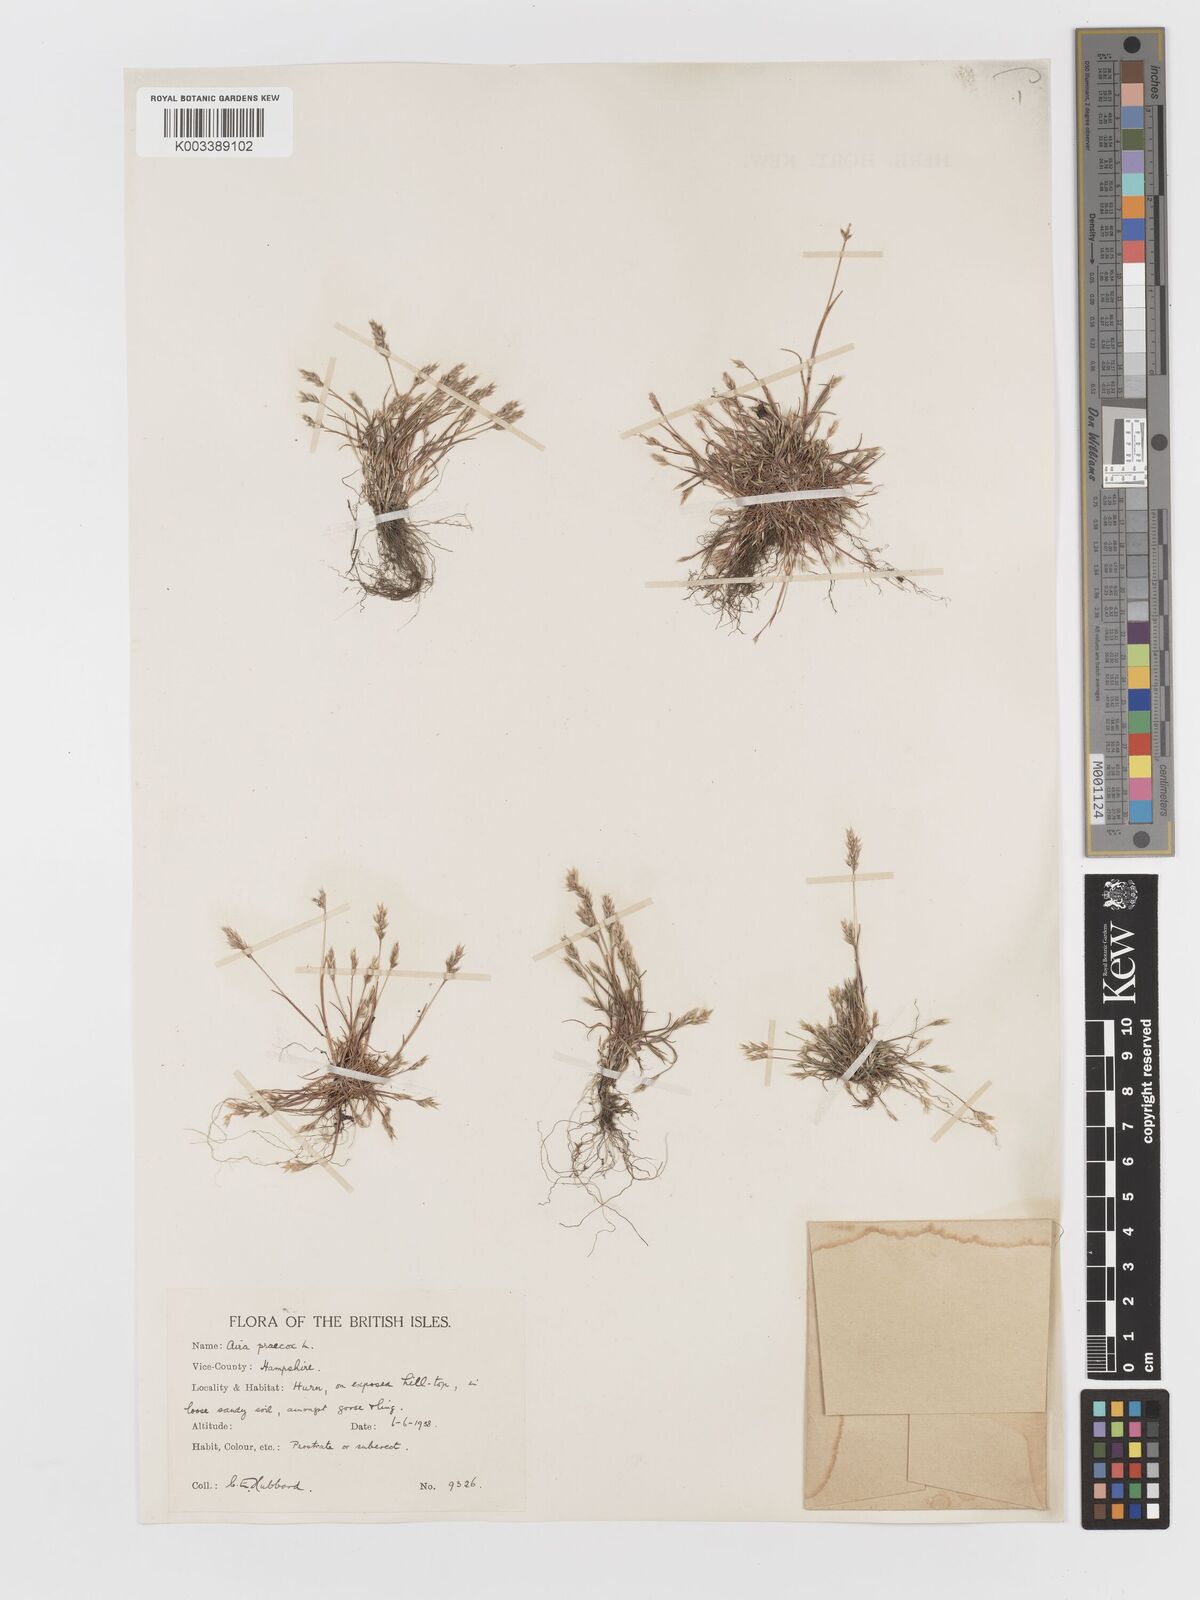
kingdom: Plantae
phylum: Tracheophyta
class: Liliopsida
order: Poales
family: Poaceae
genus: Aira
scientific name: Aira praecox
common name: Early hair-grass
